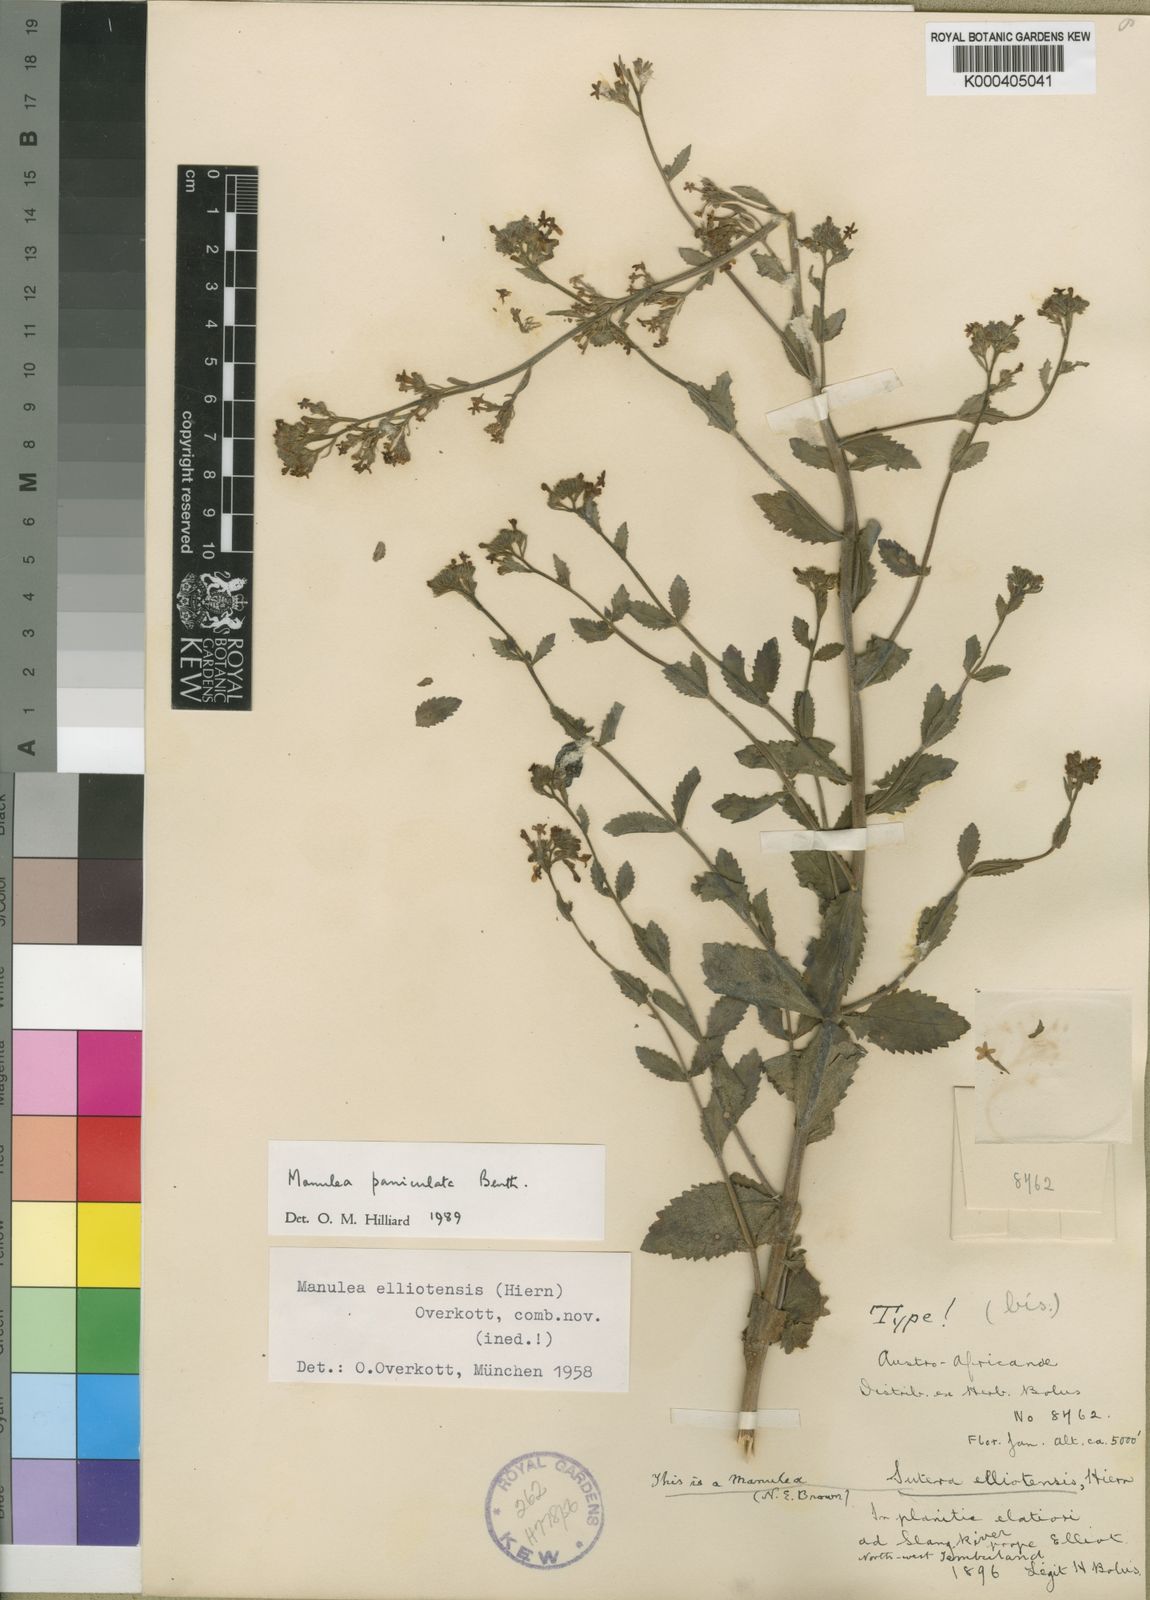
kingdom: Plantae
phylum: Tracheophyta
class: Magnoliopsida
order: Lamiales
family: Scrophulariaceae
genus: Manulea
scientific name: Manulea paniculata
